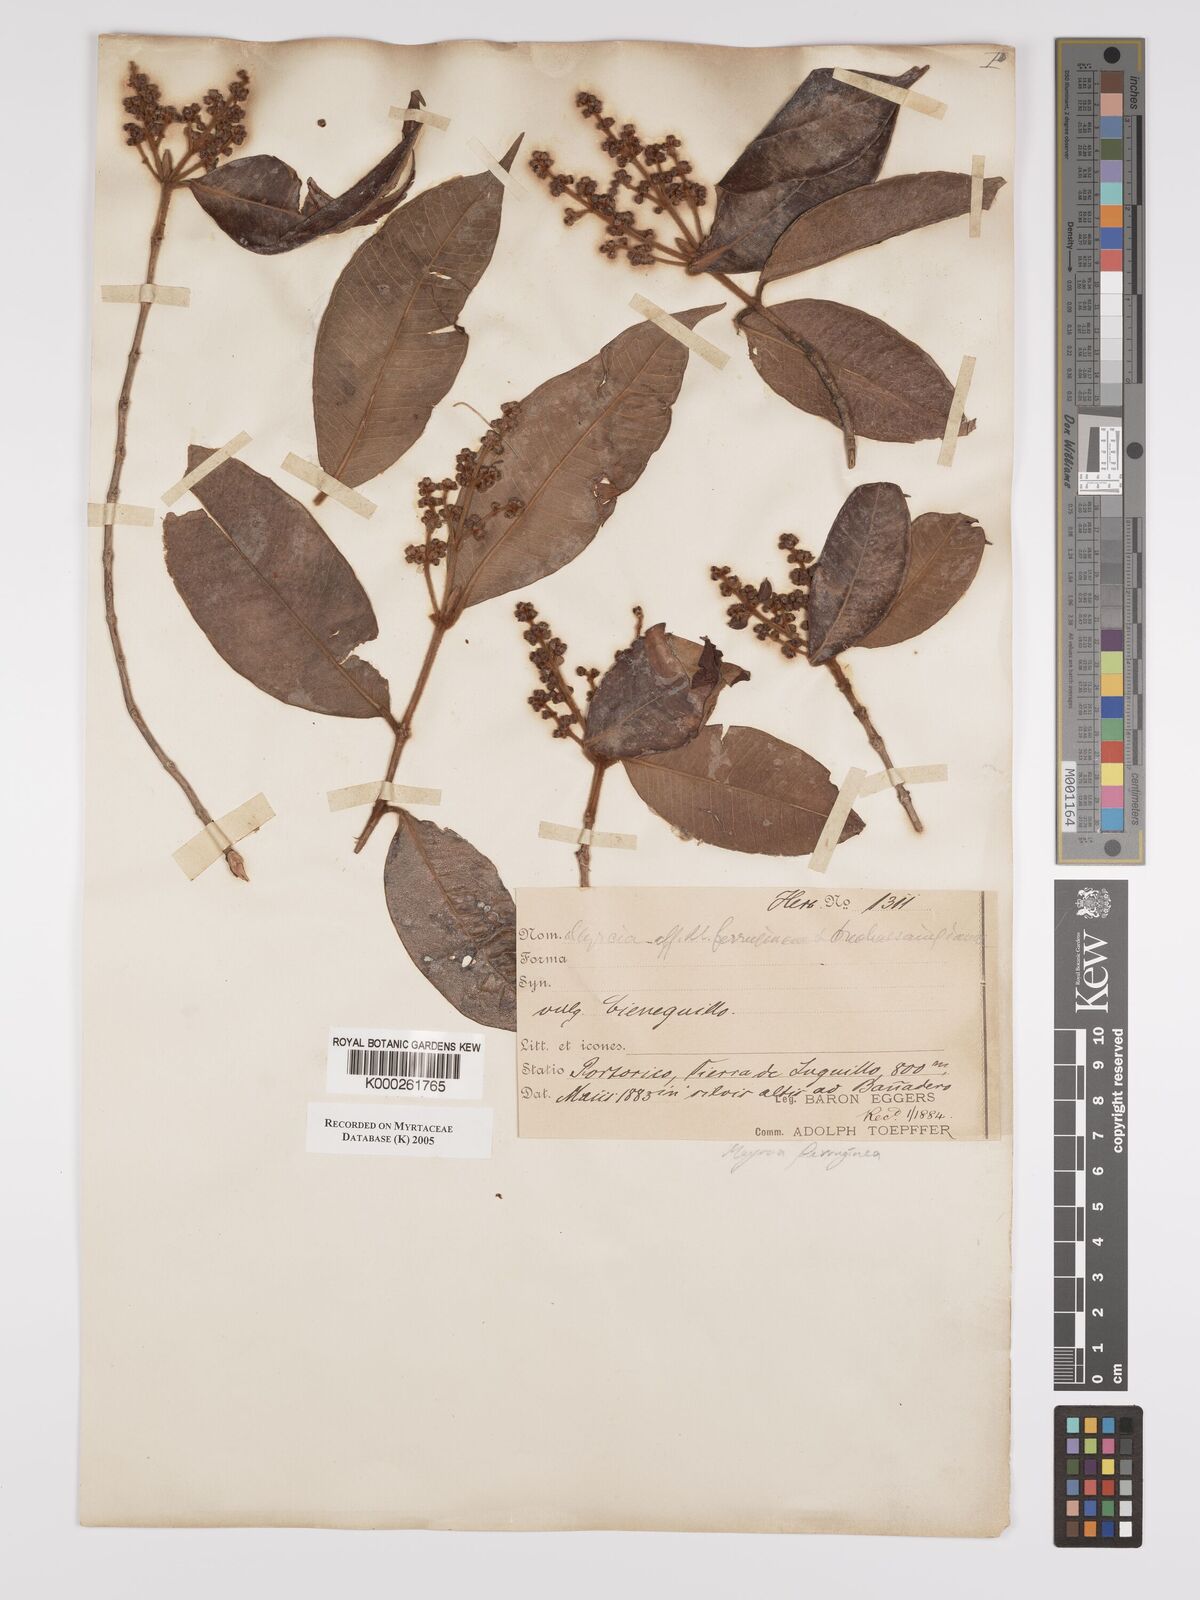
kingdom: Plantae
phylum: Tracheophyta
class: Magnoliopsida
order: Myrtales
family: Myrtaceae
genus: Myrcia
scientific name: Myrcia ferruginea
